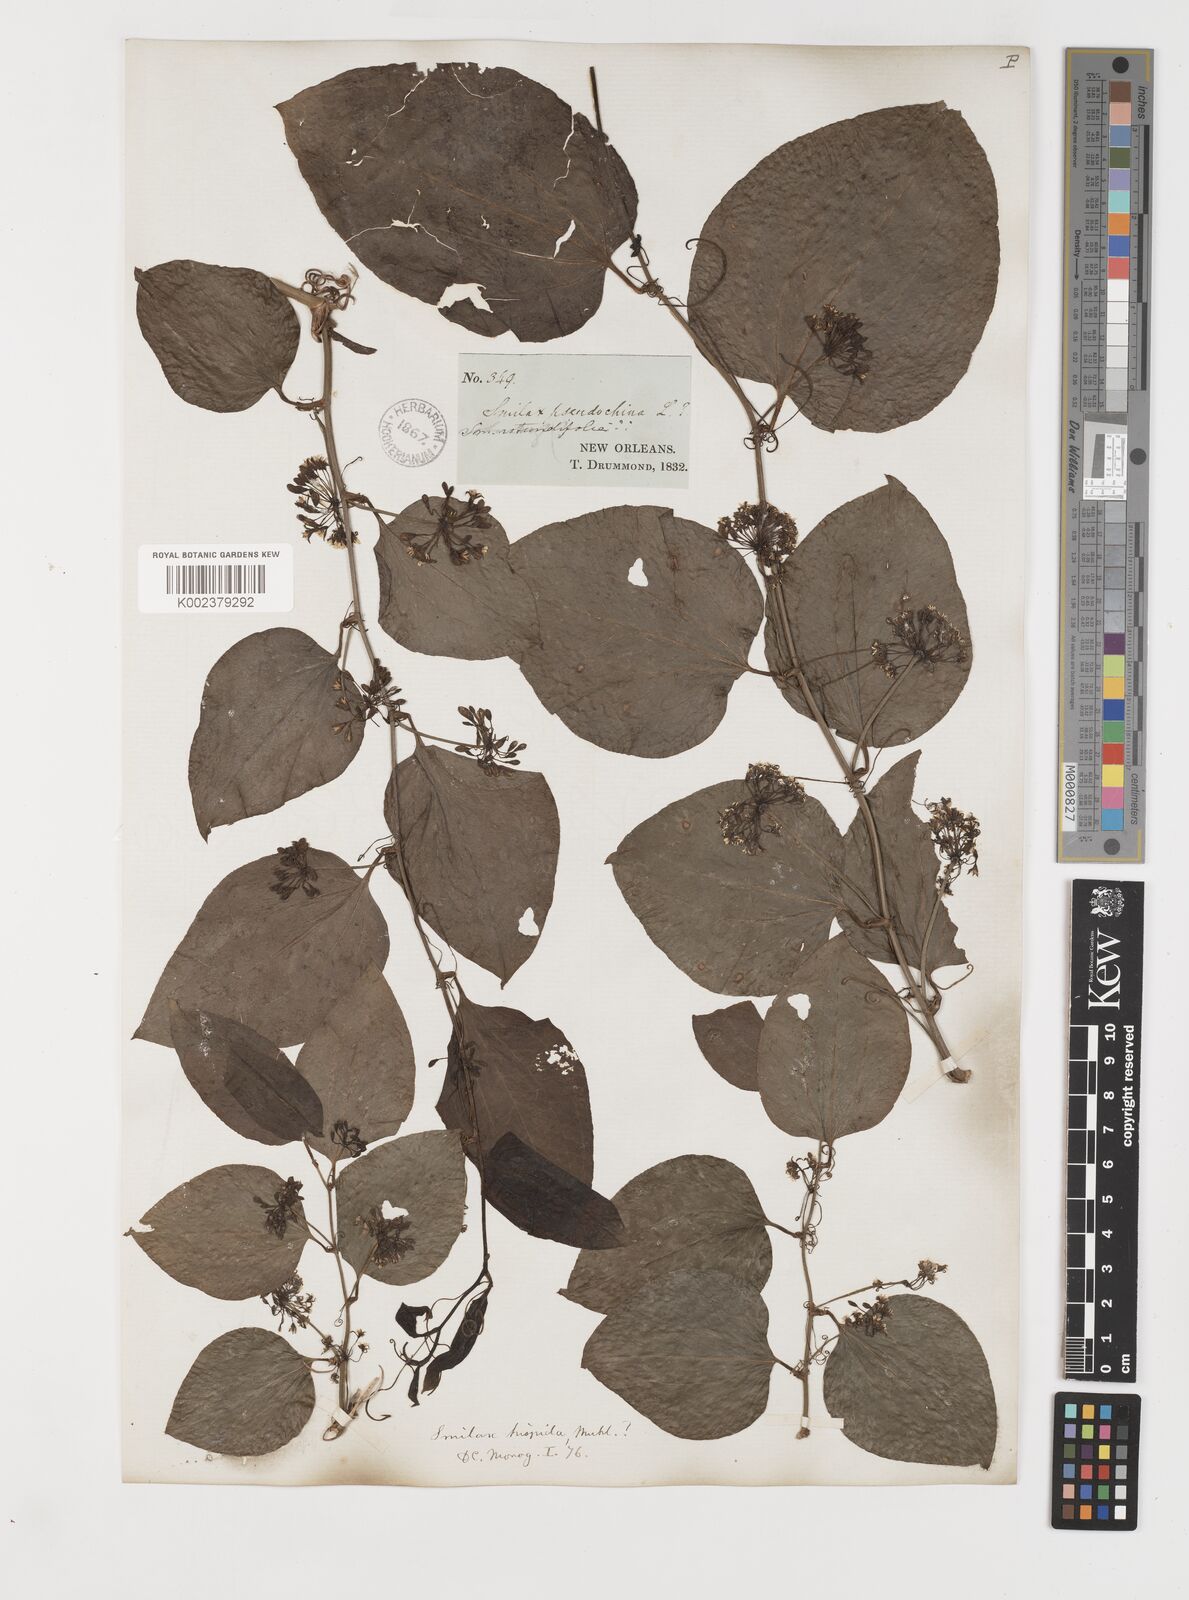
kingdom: Plantae
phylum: Tracheophyta
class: Liliopsida
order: Liliales
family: Smilacaceae
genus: Smilax
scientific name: Smilax tamnoides
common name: Hellfetter
